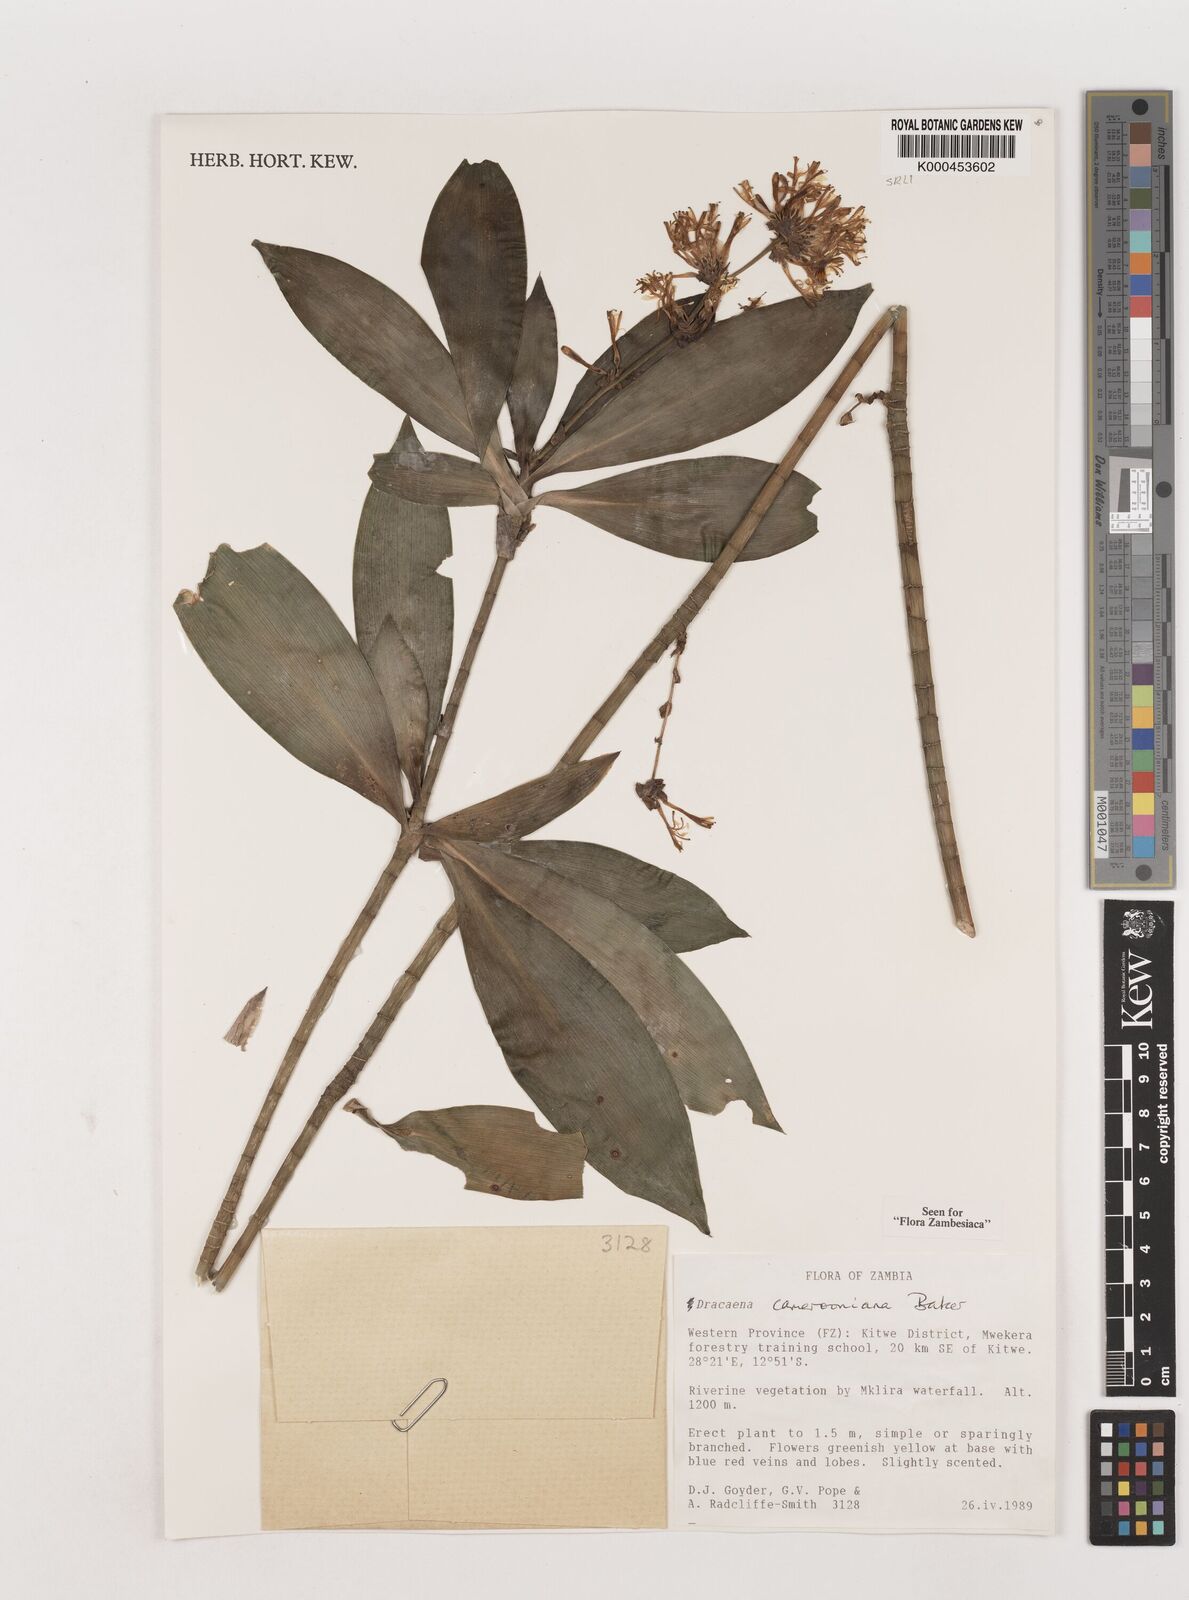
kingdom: Plantae
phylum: Tracheophyta
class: Liliopsida
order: Asparagales
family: Asparagaceae
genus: Dracaena
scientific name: Dracaena camerooniana
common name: Dragon tree
